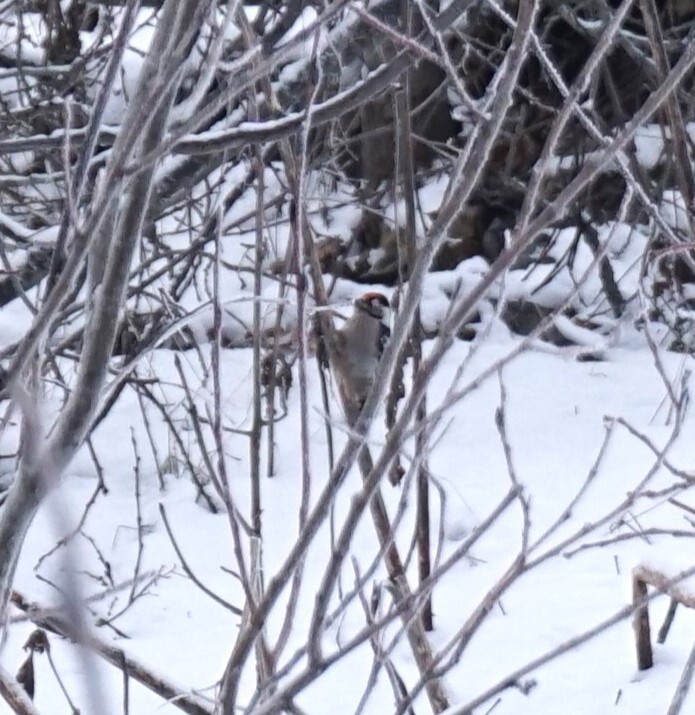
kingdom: Animalia
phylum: Chordata
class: Aves
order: Piciformes
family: Picidae
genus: Dryobates
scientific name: Dryobates minor
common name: Lesser spotted woodpecker
